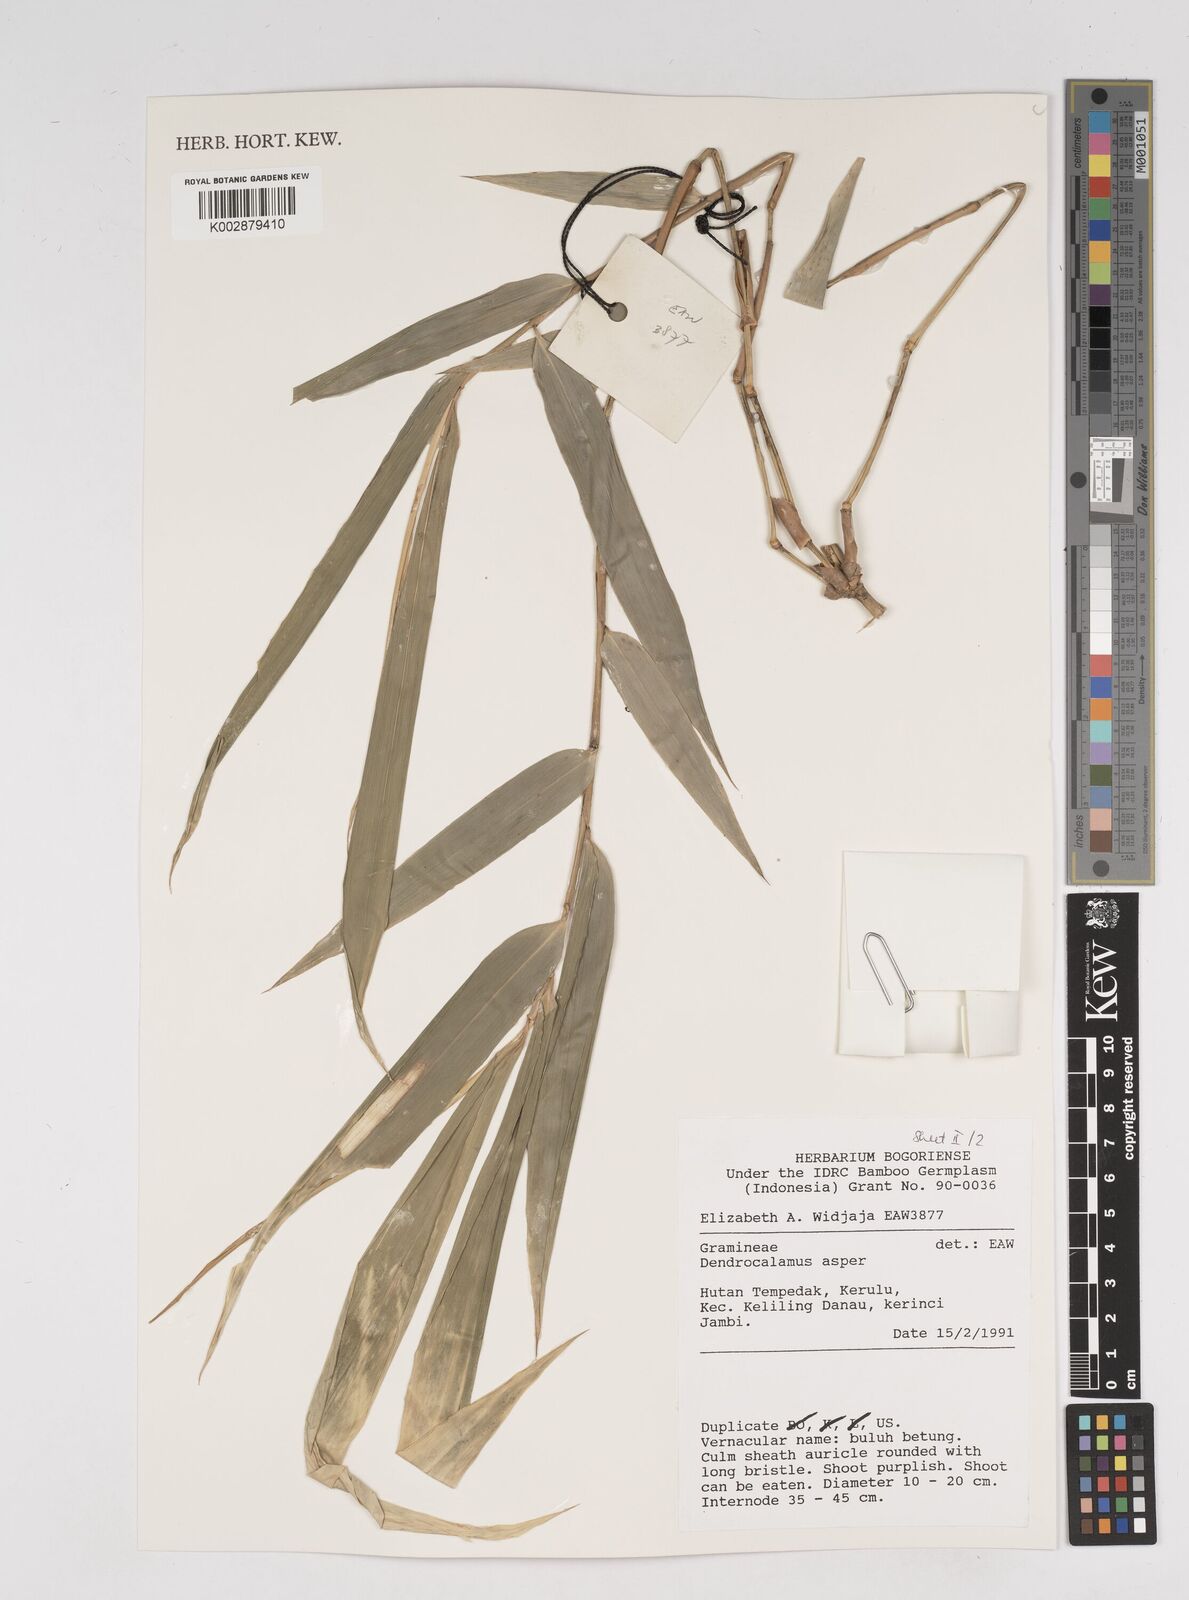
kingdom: Plantae
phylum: Tracheophyta
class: Liliopsida
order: Poales
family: Poaceae
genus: Dendrocalamus
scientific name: Dendrocalamus asper
